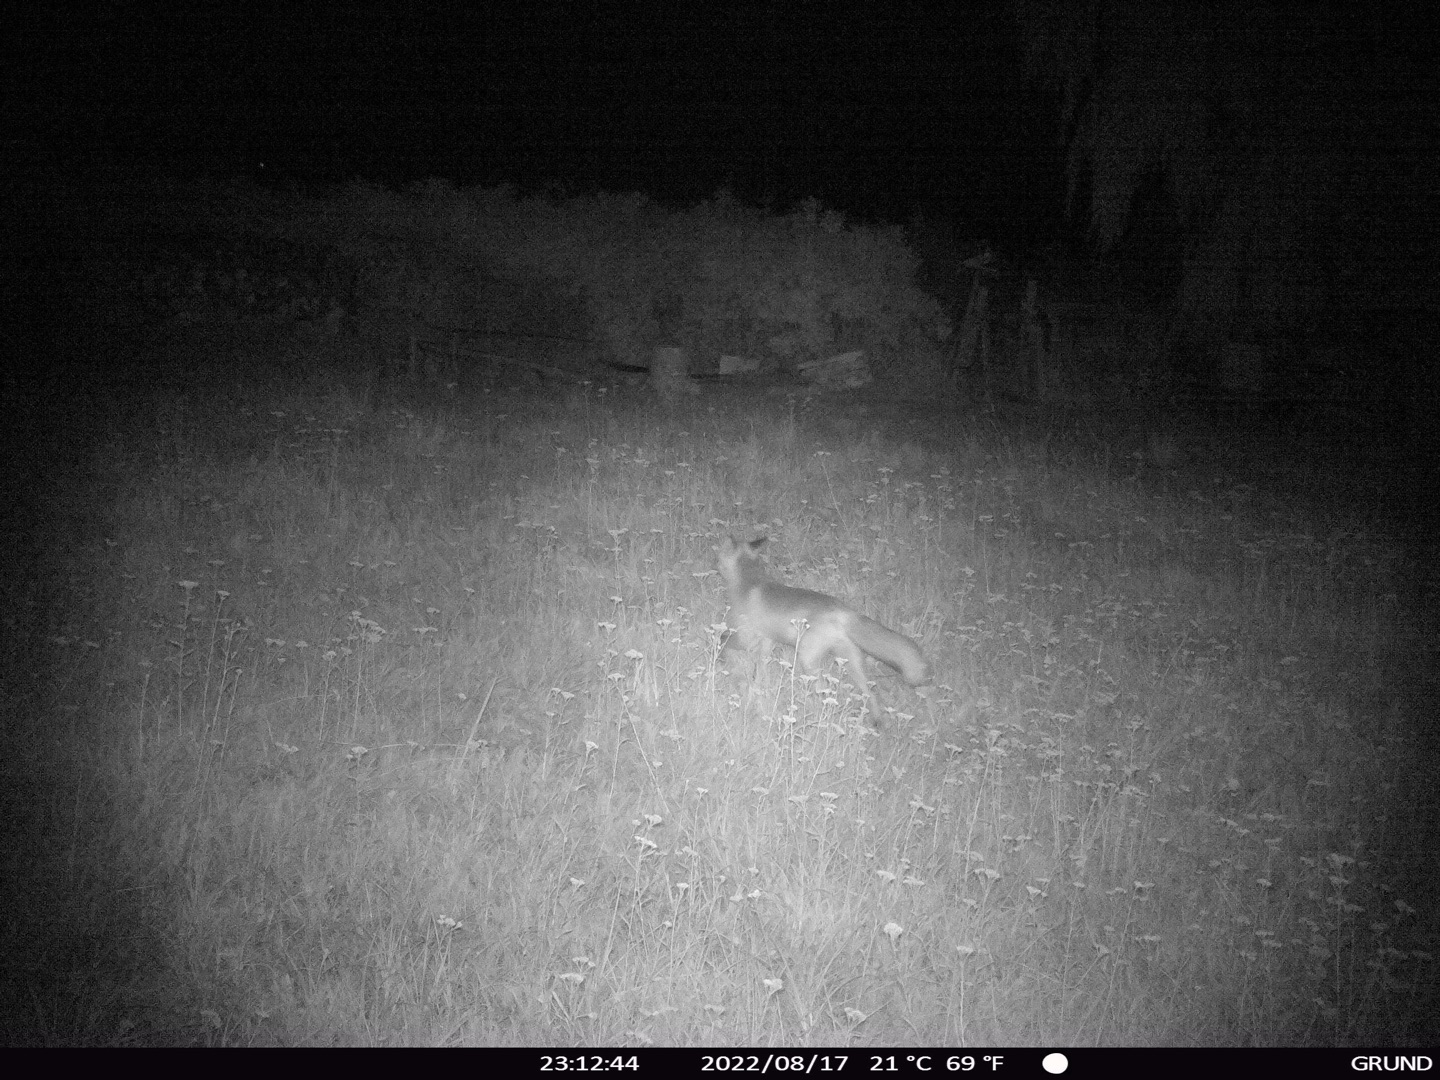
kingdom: Animalia
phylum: Chordata
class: Mammalia
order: Carnivora
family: Canidae
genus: Vulpes
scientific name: Vulpes vulpes
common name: Ræv
